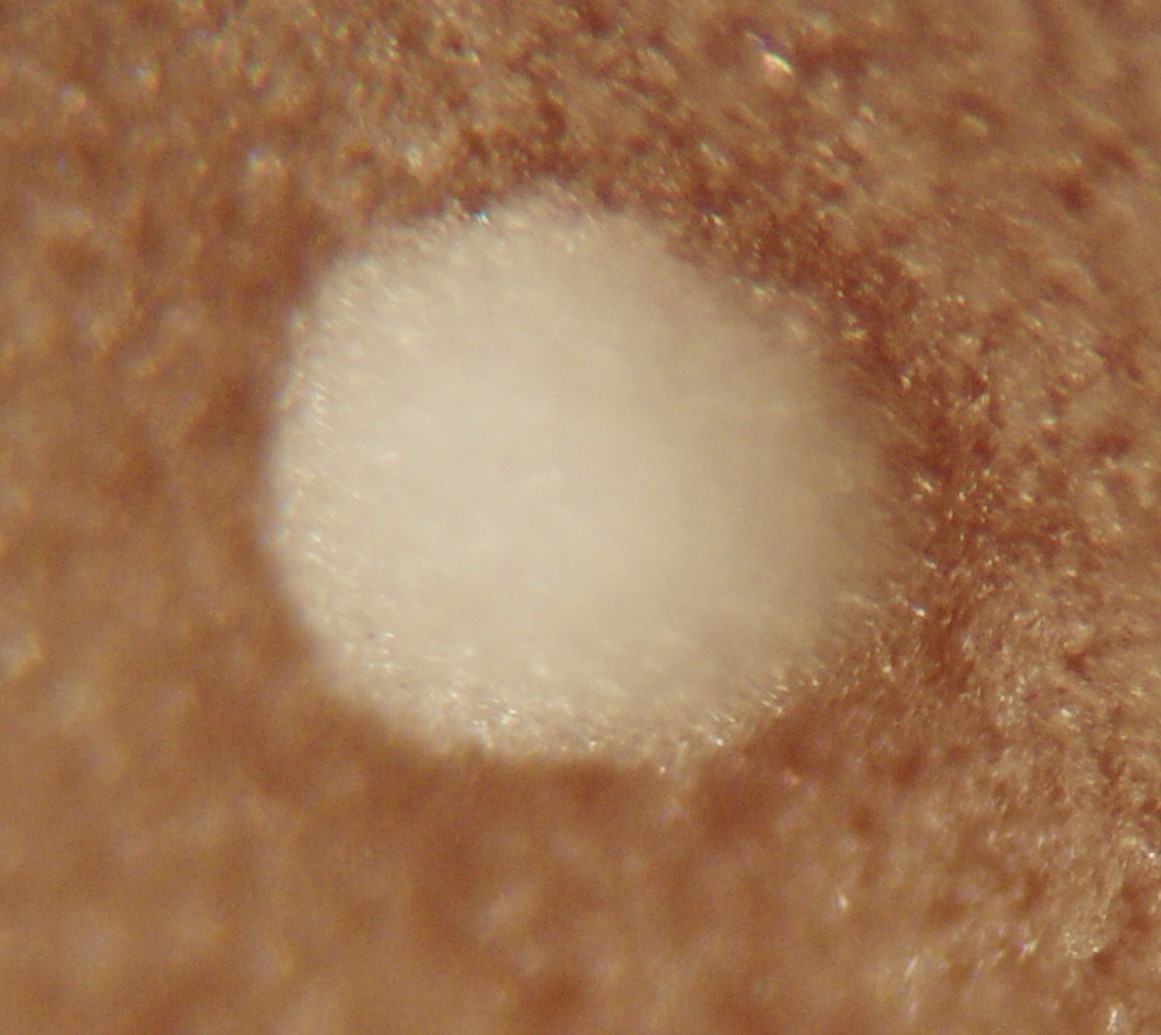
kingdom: Fungi
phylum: Ascomycota
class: Pezizomycetes
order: Pezizales
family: Pezizaceae
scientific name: Pezizaceae
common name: bægersvampfamilien
